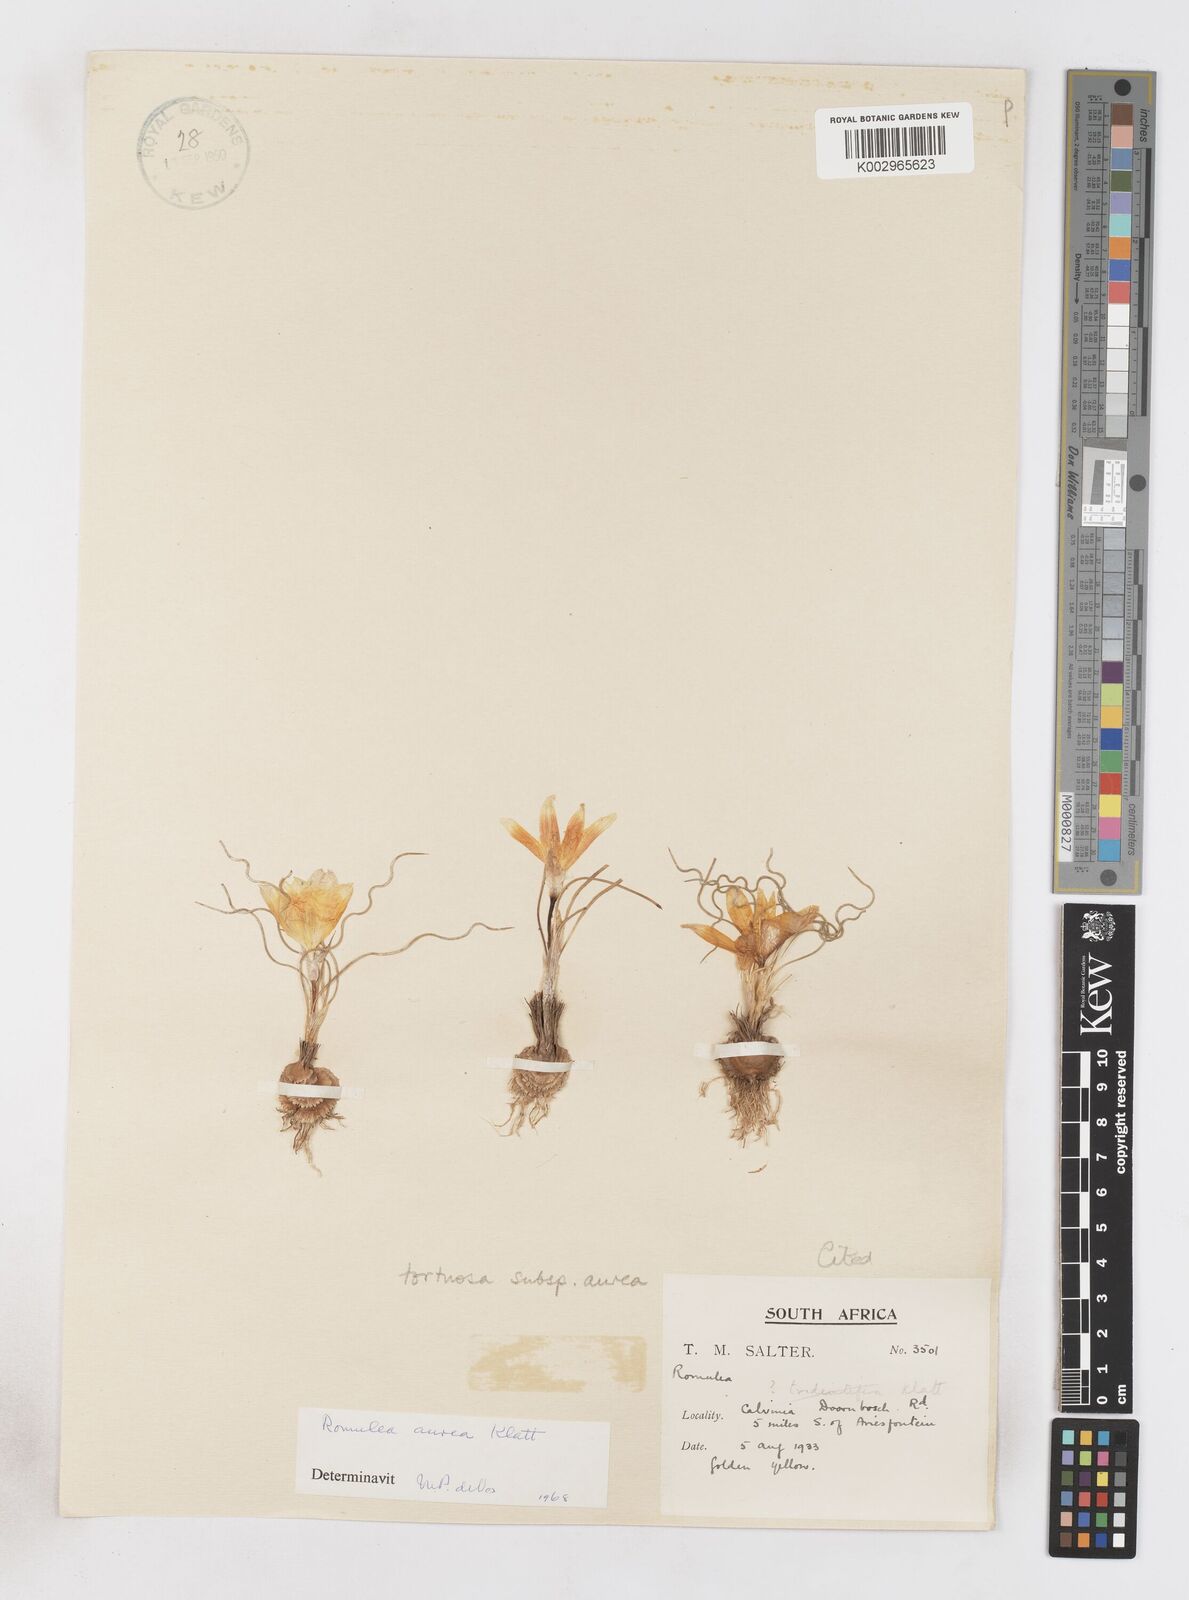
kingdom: Plantae
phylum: Tracheophyta
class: Liliopsida
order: Asparagales
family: Iridaceae
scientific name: Iridaceae
